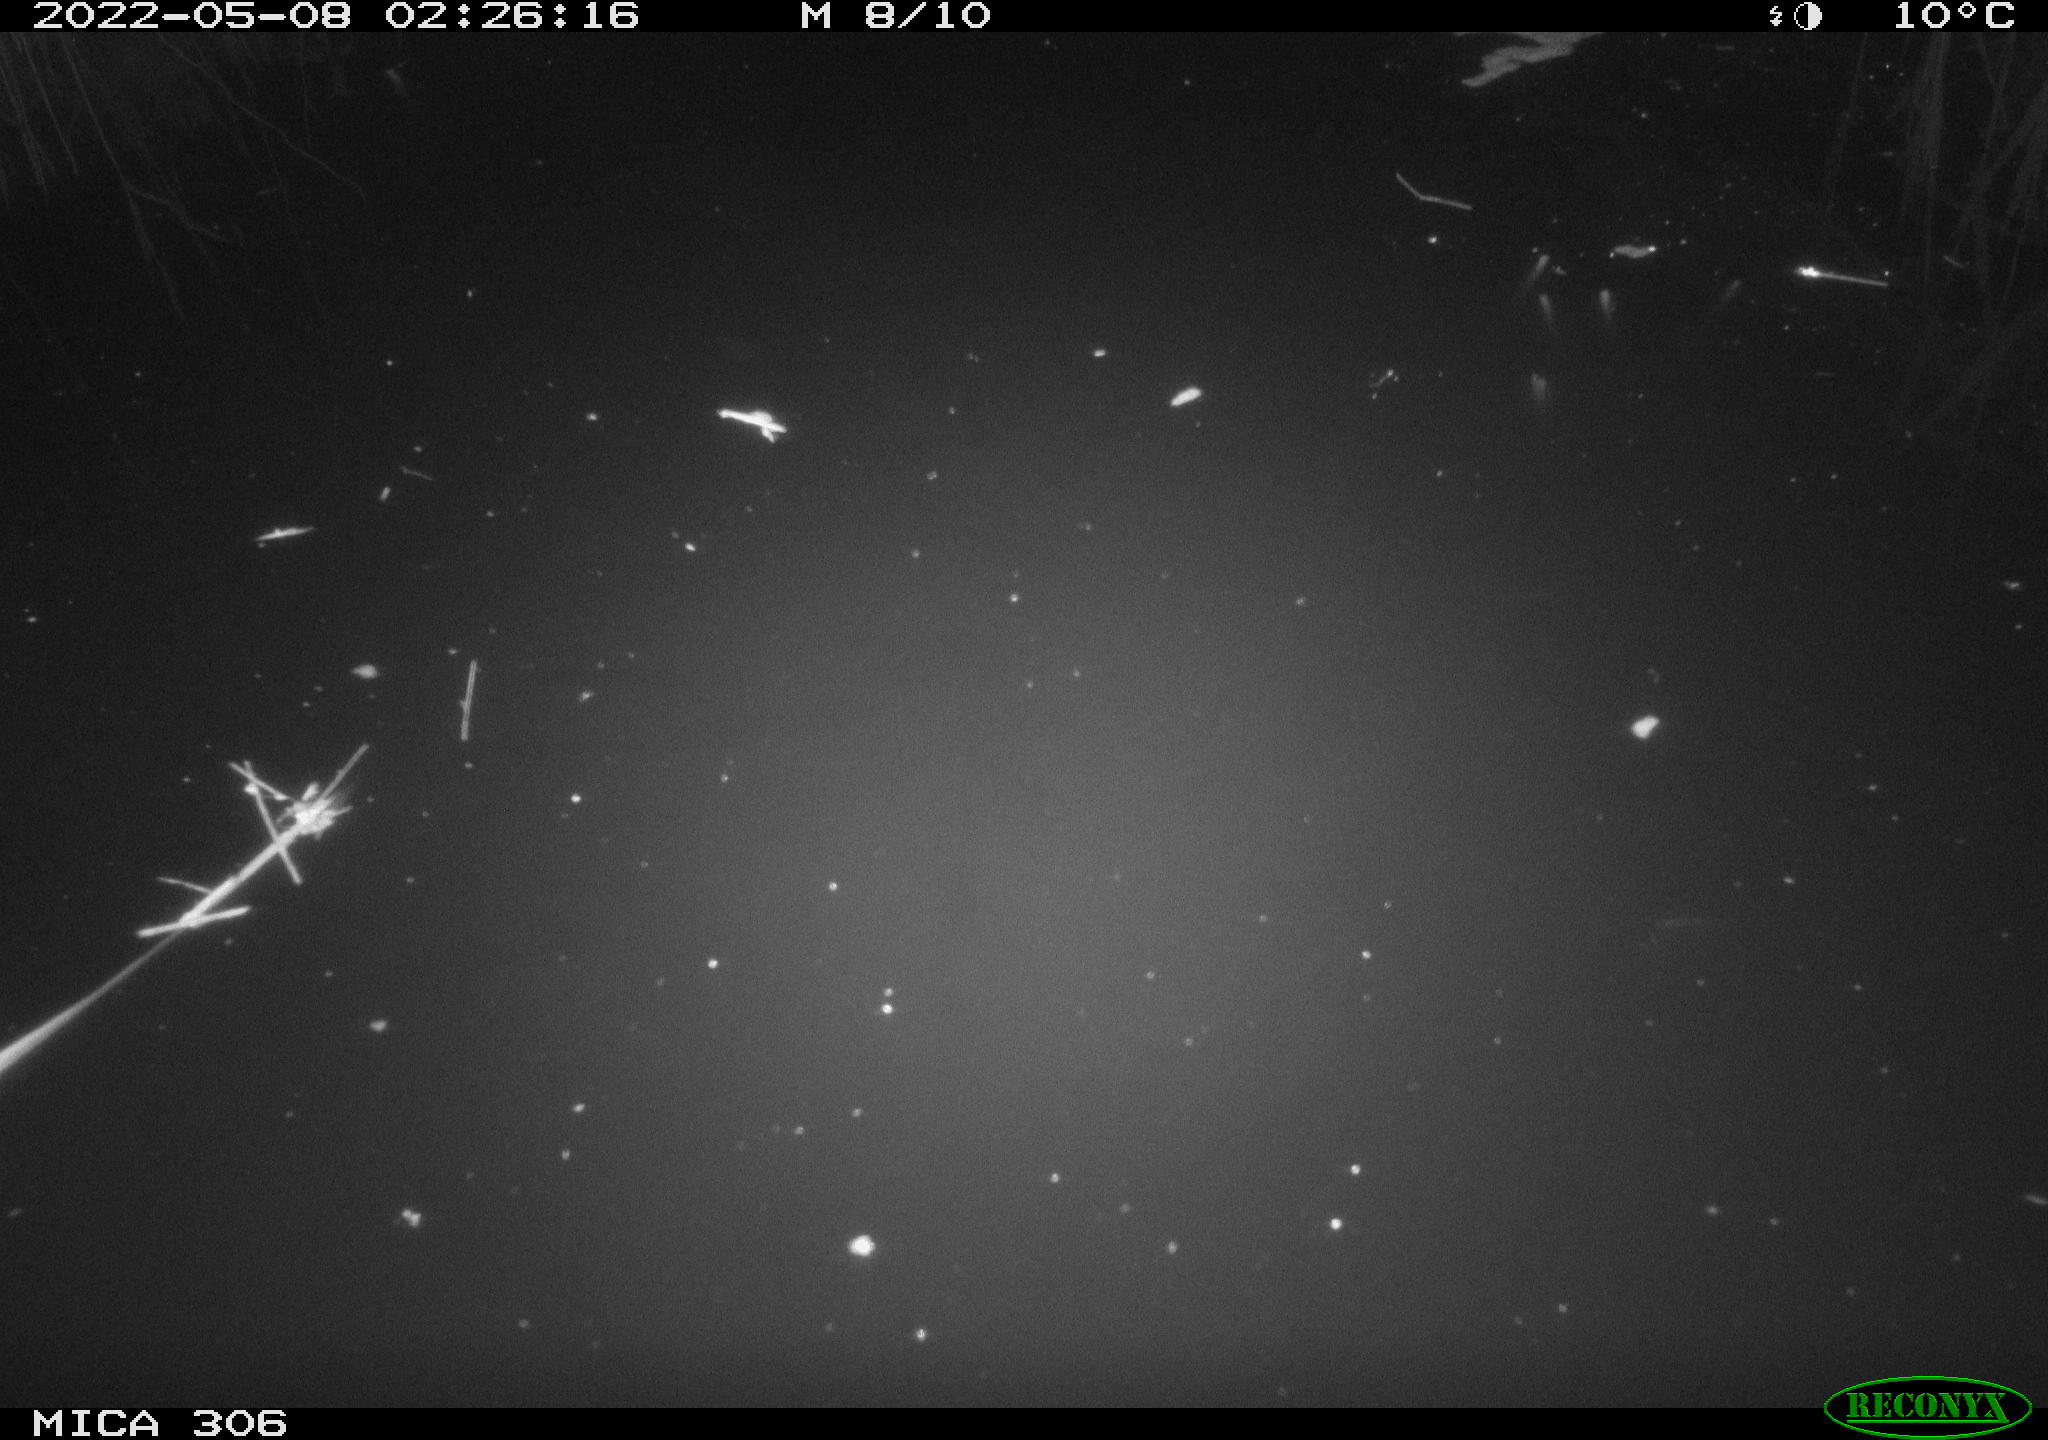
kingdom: Animalia
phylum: Chordata
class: Aves
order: Gruiformes
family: Rallidae
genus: Gallinula
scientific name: Gallinula chloropus
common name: Common moorhen
